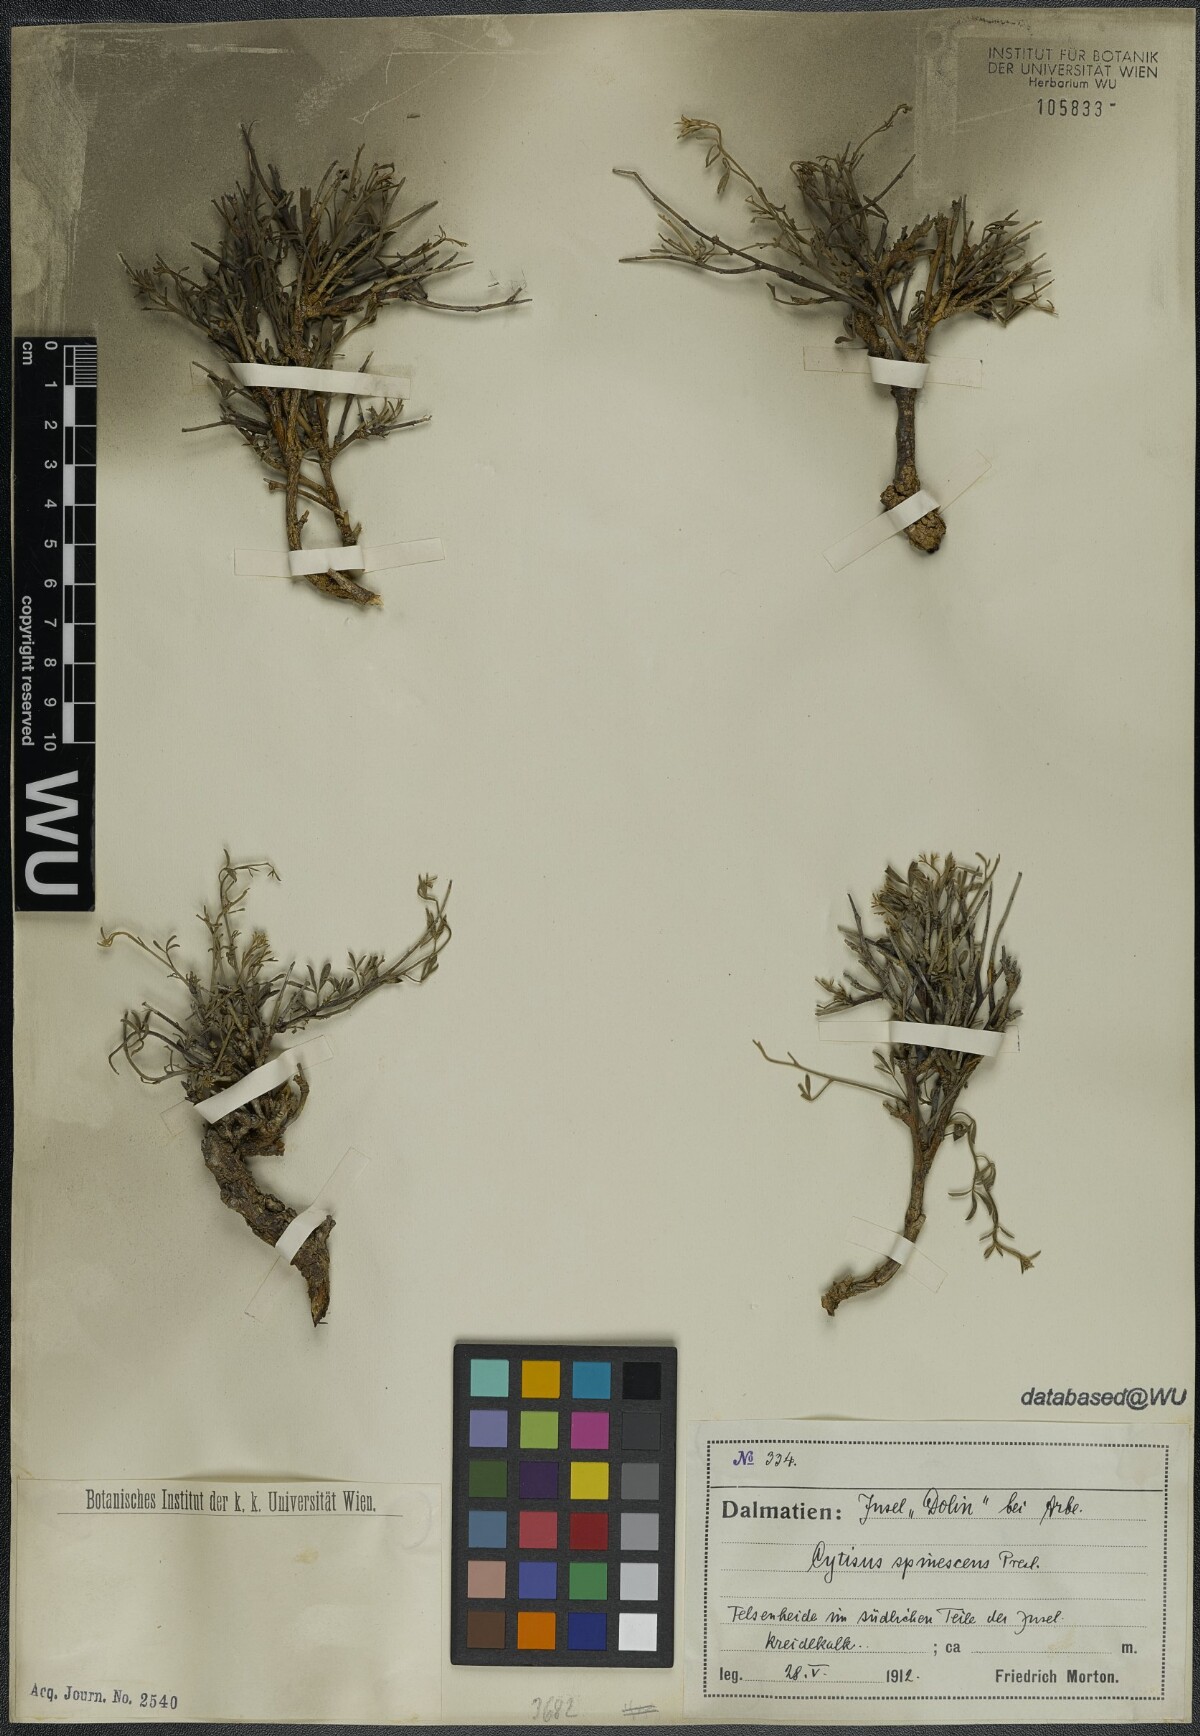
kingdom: Plantae
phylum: Tracheophyta
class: Magnoliopsida
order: Fabales
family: Fabaceae
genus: Chamaecytisus
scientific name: Chamaecytisus spinescens
